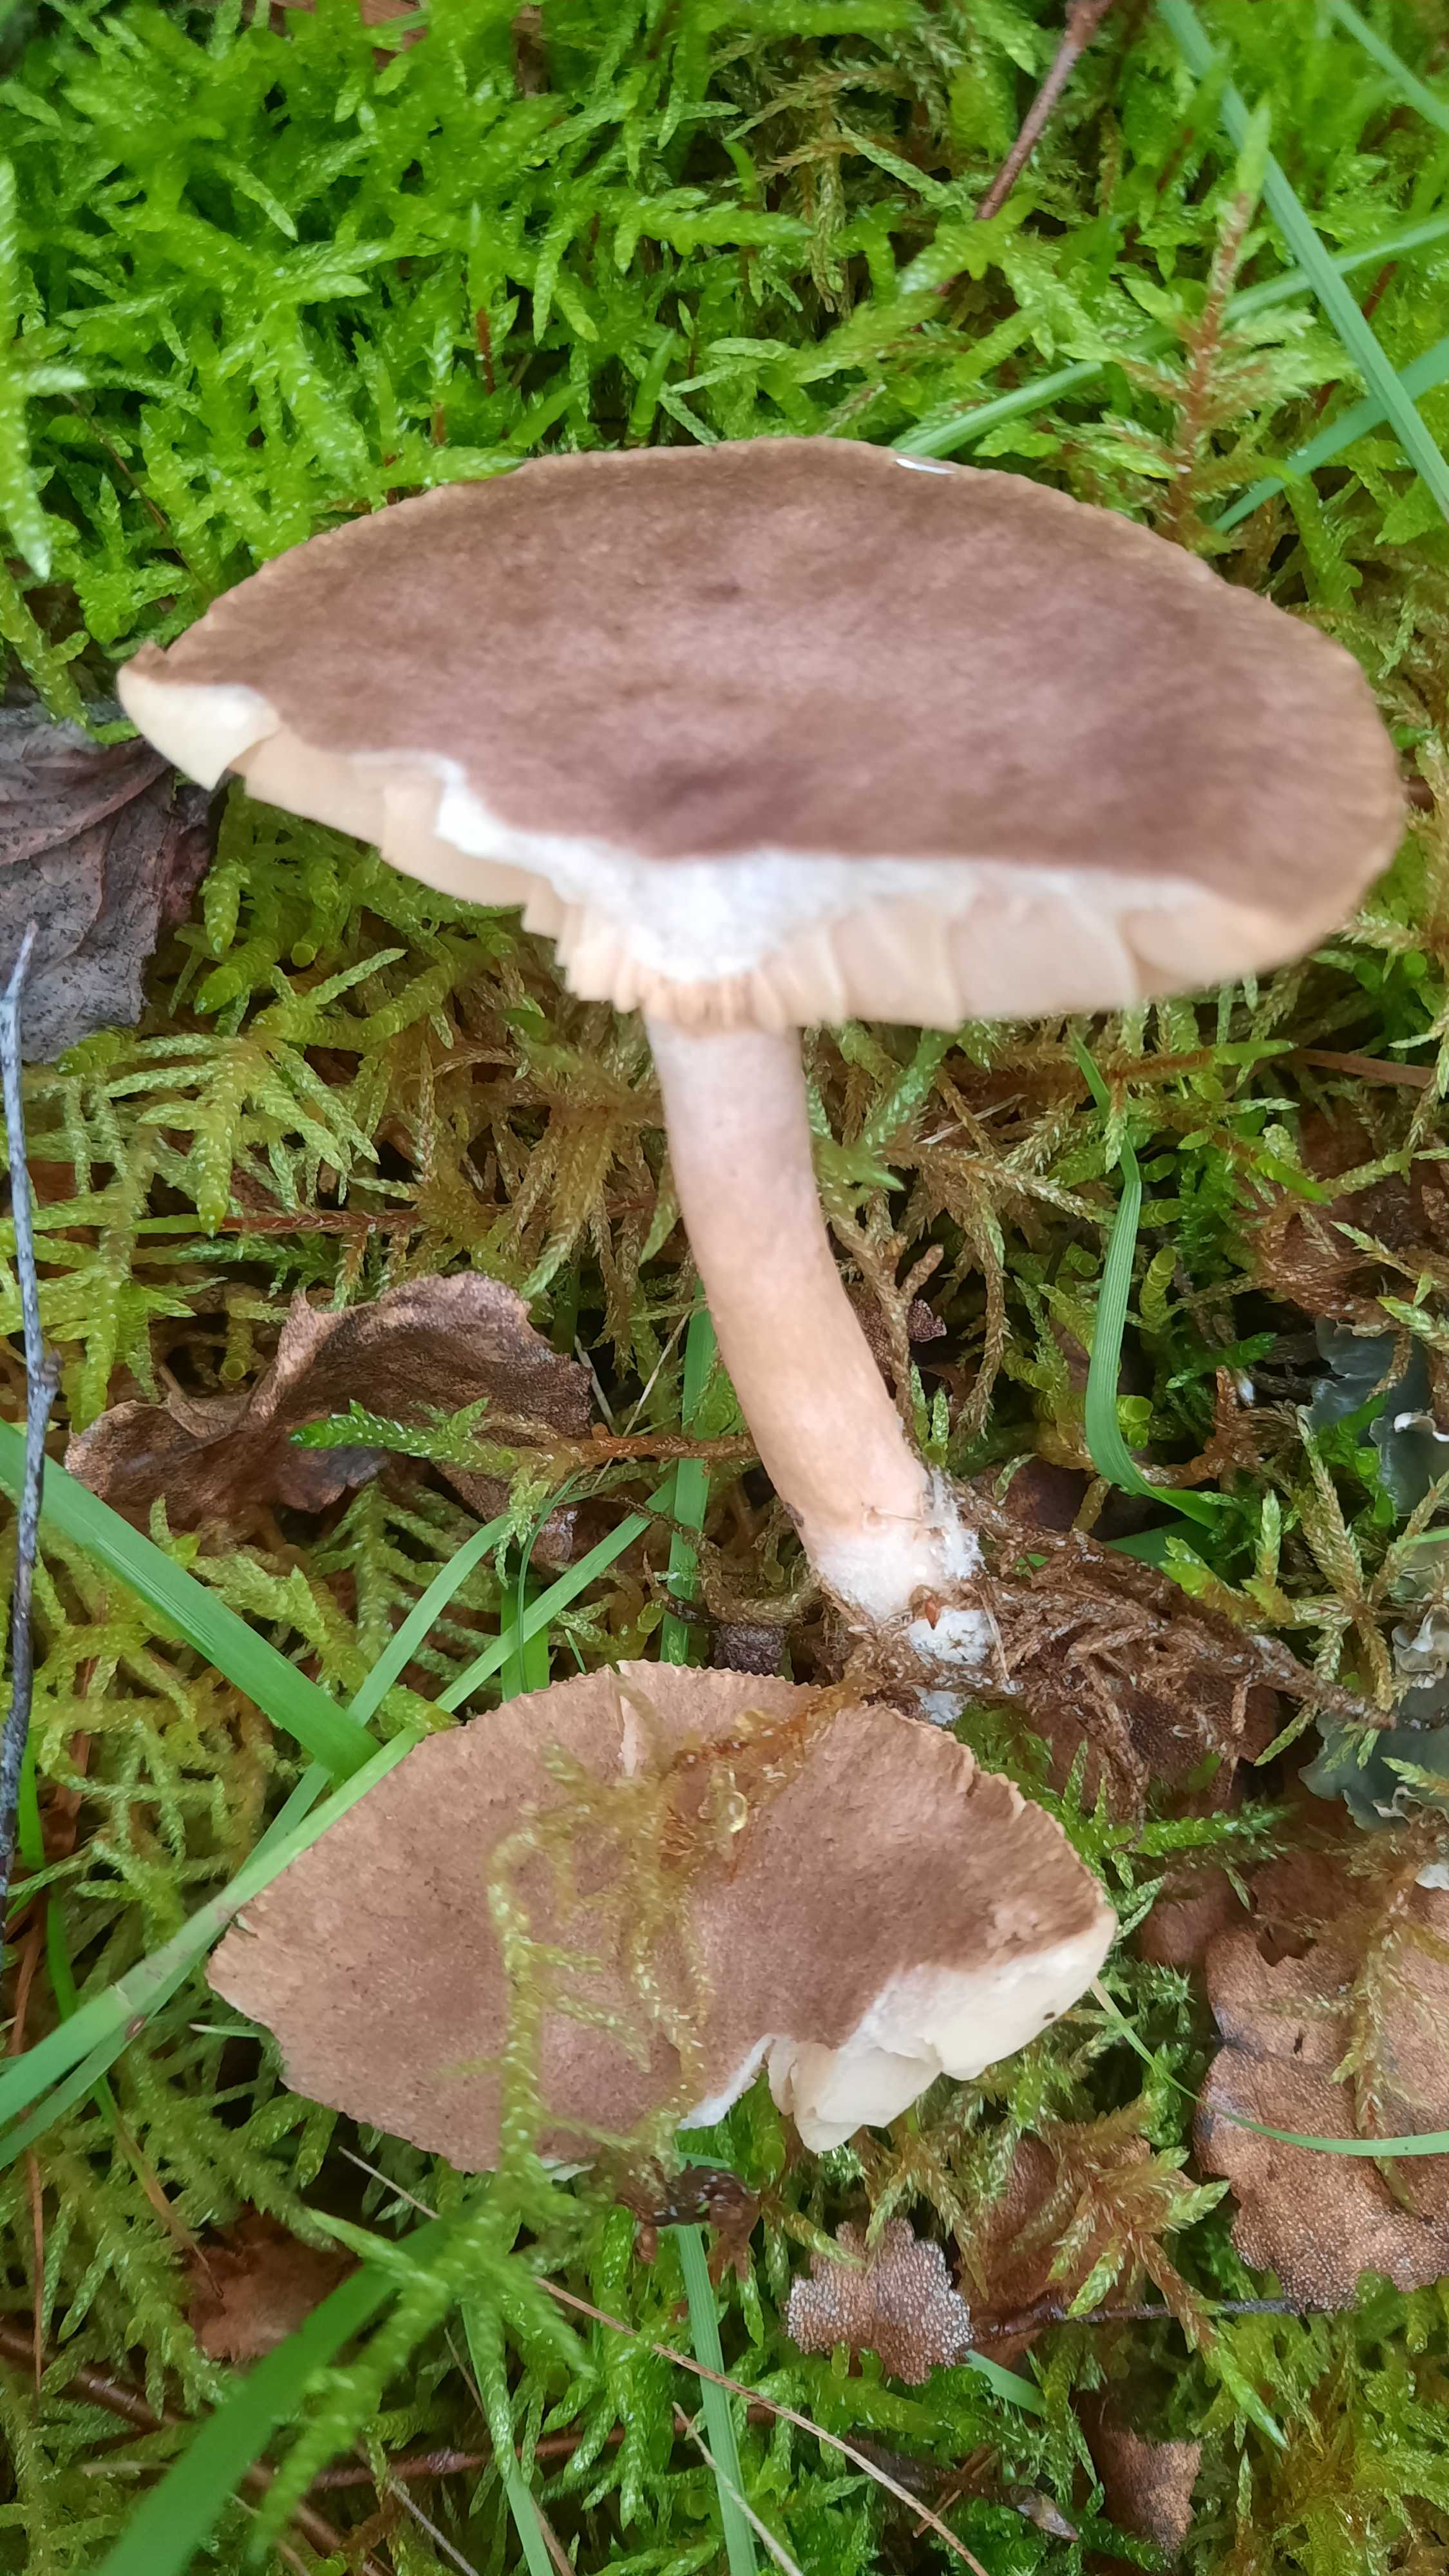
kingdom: Fungi
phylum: Basidiomycota
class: Agaricomycetes
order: Russulales
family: Russulaceae
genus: Lactarius
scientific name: Lactarius mammosus
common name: kokosbrun mælkehat
